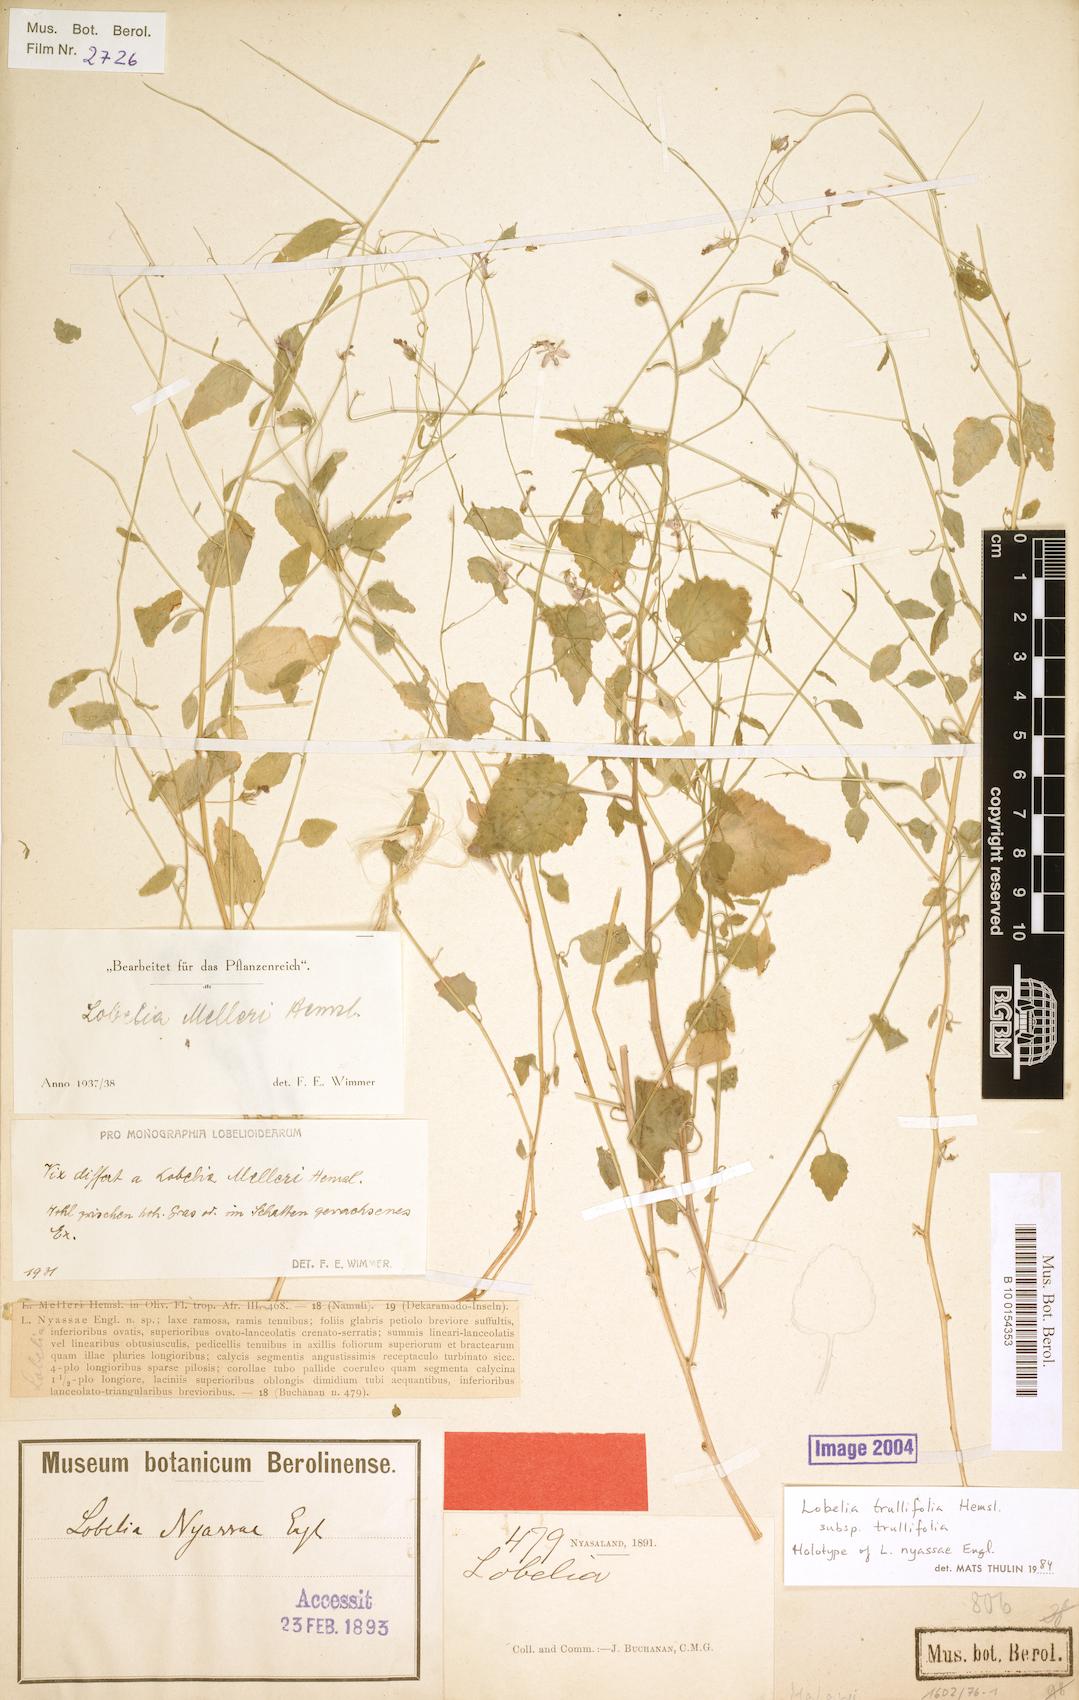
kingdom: Plantae
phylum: Tracheophyta
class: Magnoliopsida
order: Asterales
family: Campanulaceae
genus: Lobelia
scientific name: Lobelia trullifolia
